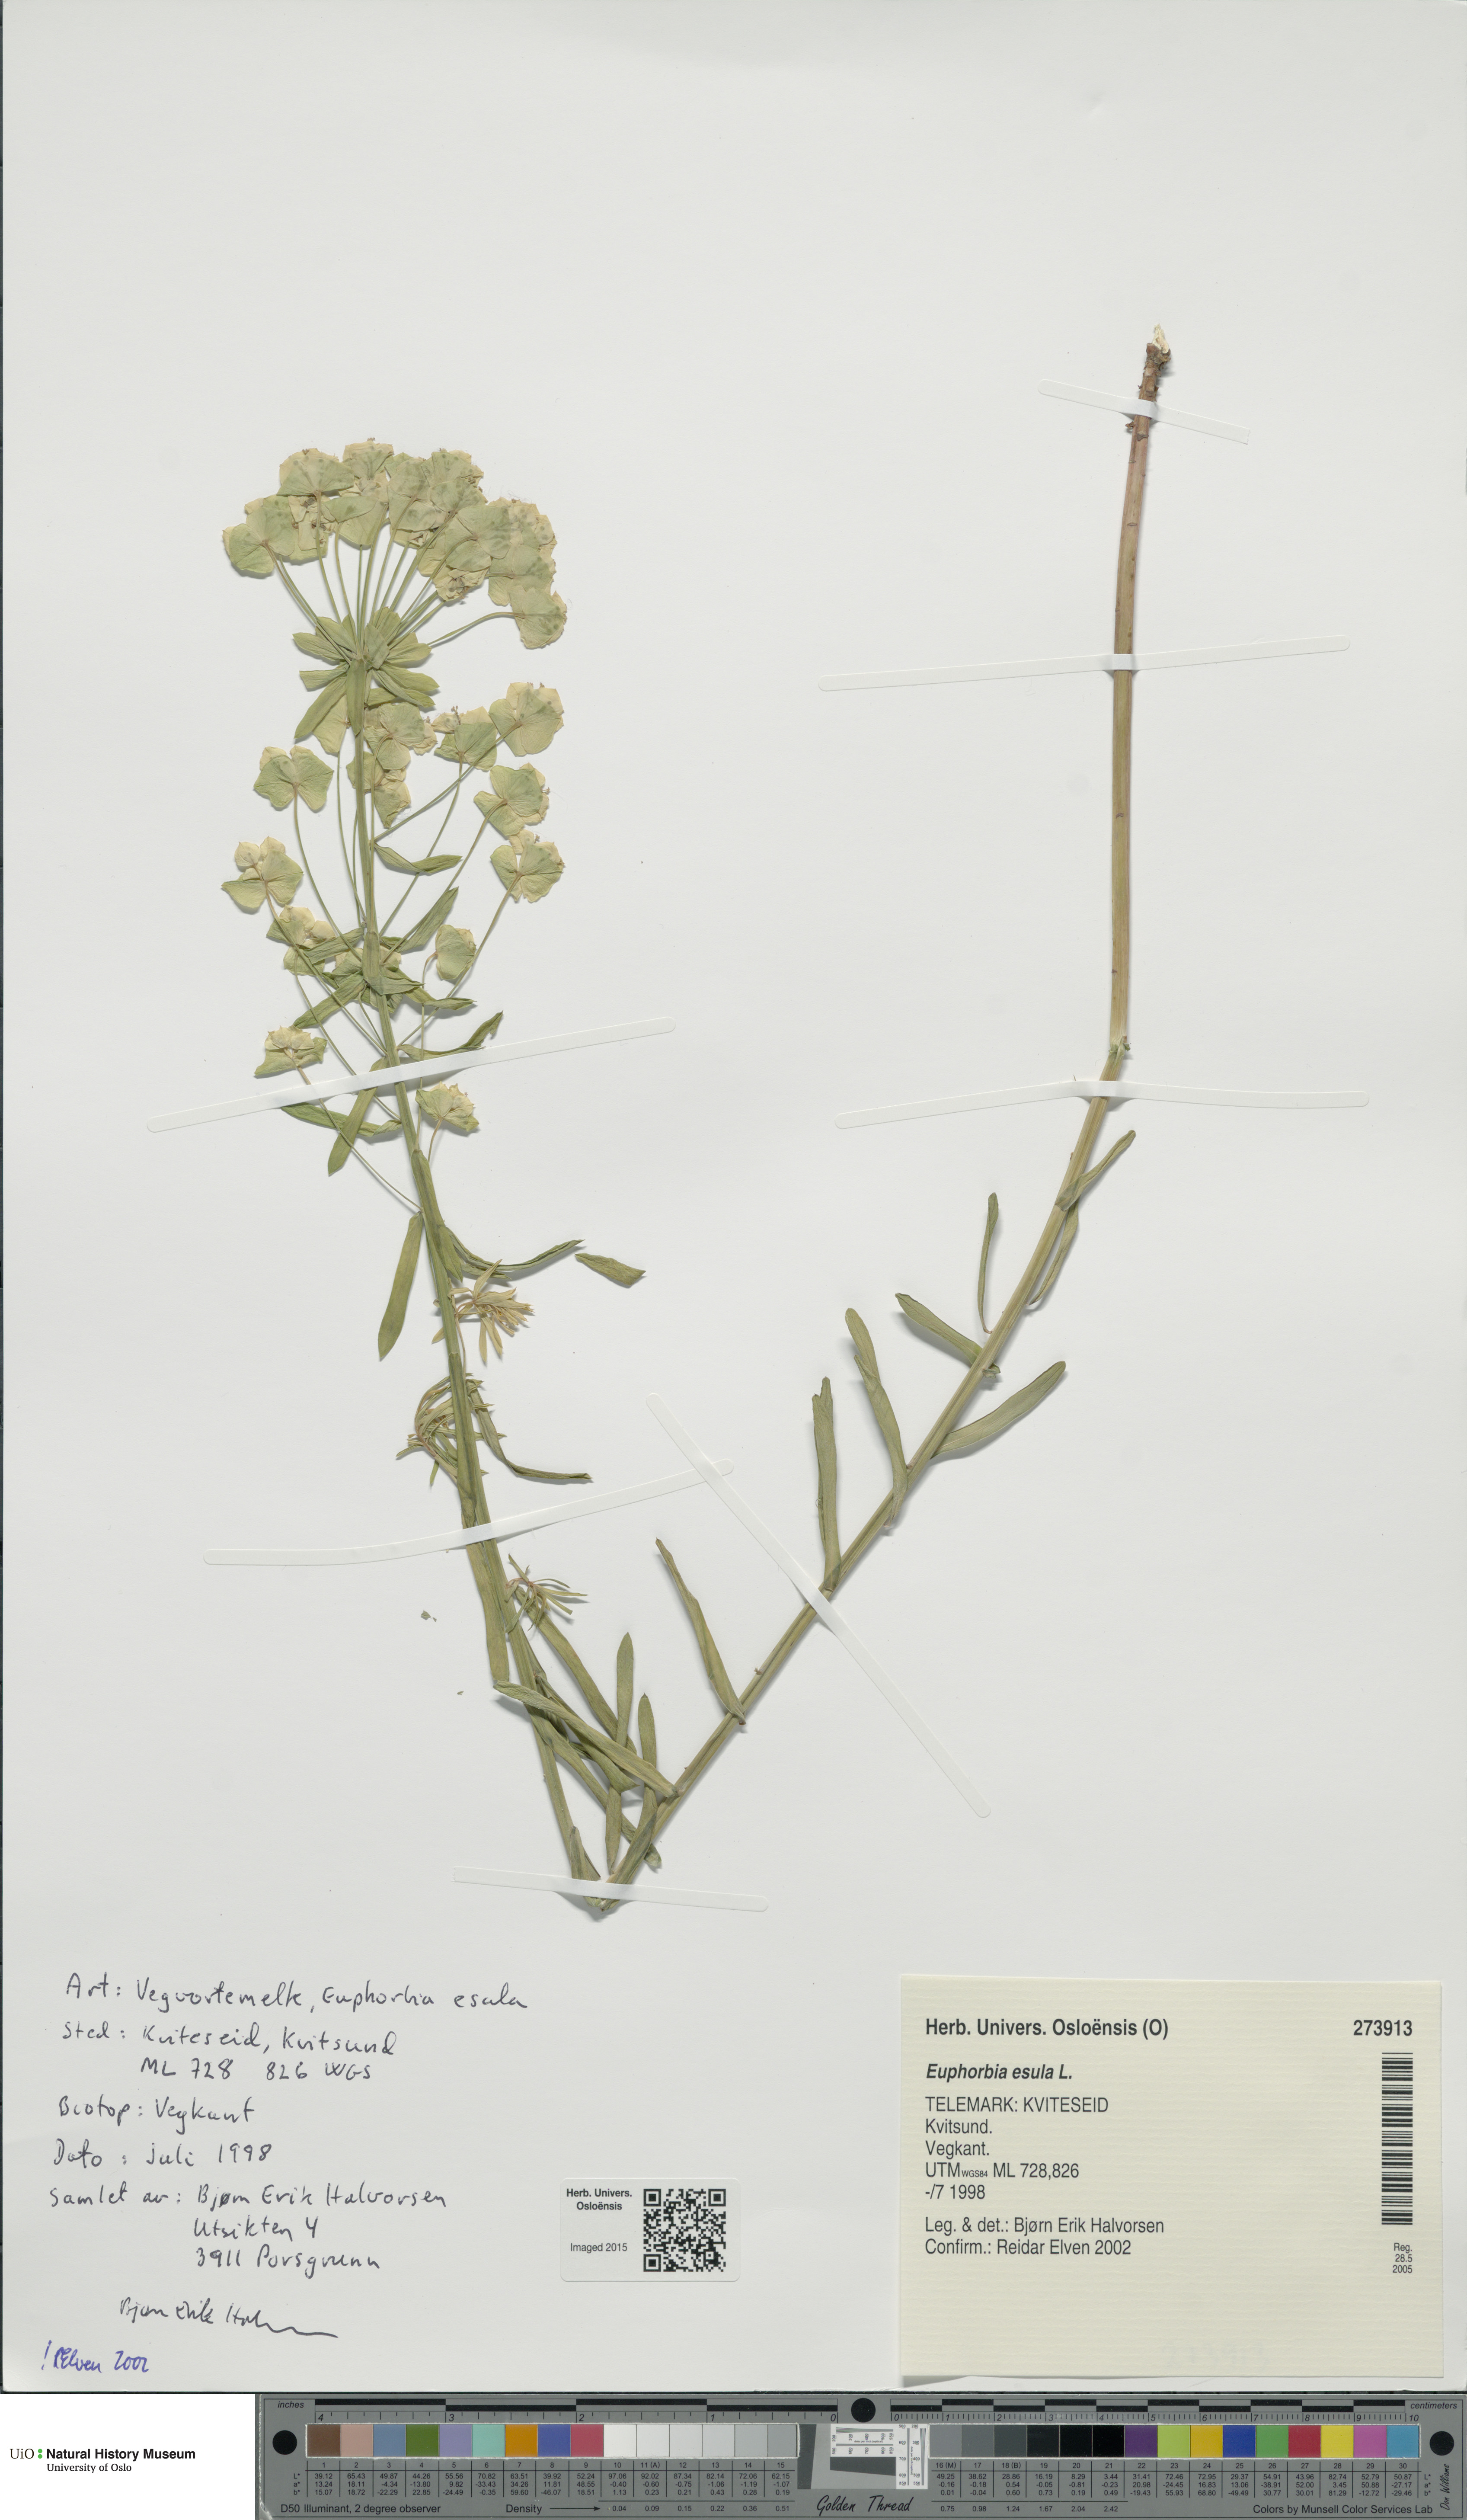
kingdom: Plantae
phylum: Tracheophyta
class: Magnoliopsida
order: Malpighiales
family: Euphorbiaceae
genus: Euphorbia
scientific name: Euphorbia esula
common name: Leafy spurge
